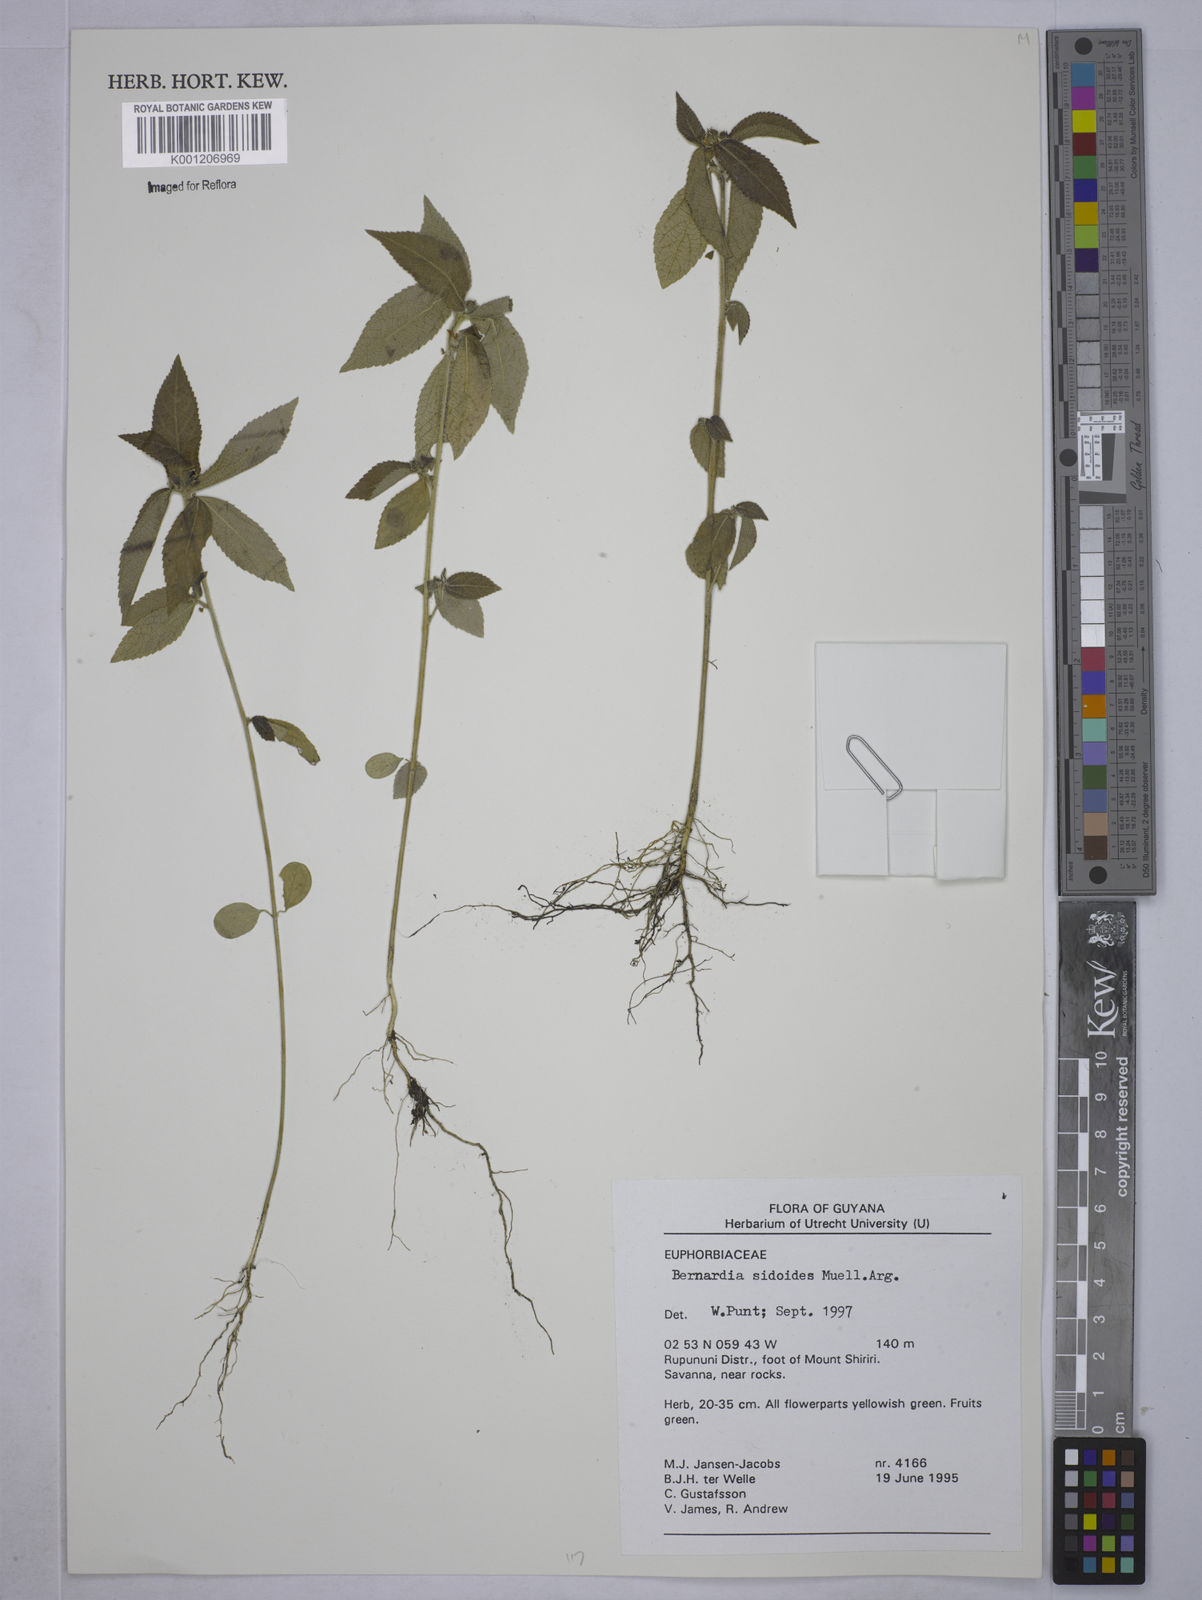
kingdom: Plantae
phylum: Tracheophyta
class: Magnoliopsida
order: Malpighiales
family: Euphorbiaceae
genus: Bernardia
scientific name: Bernardia
